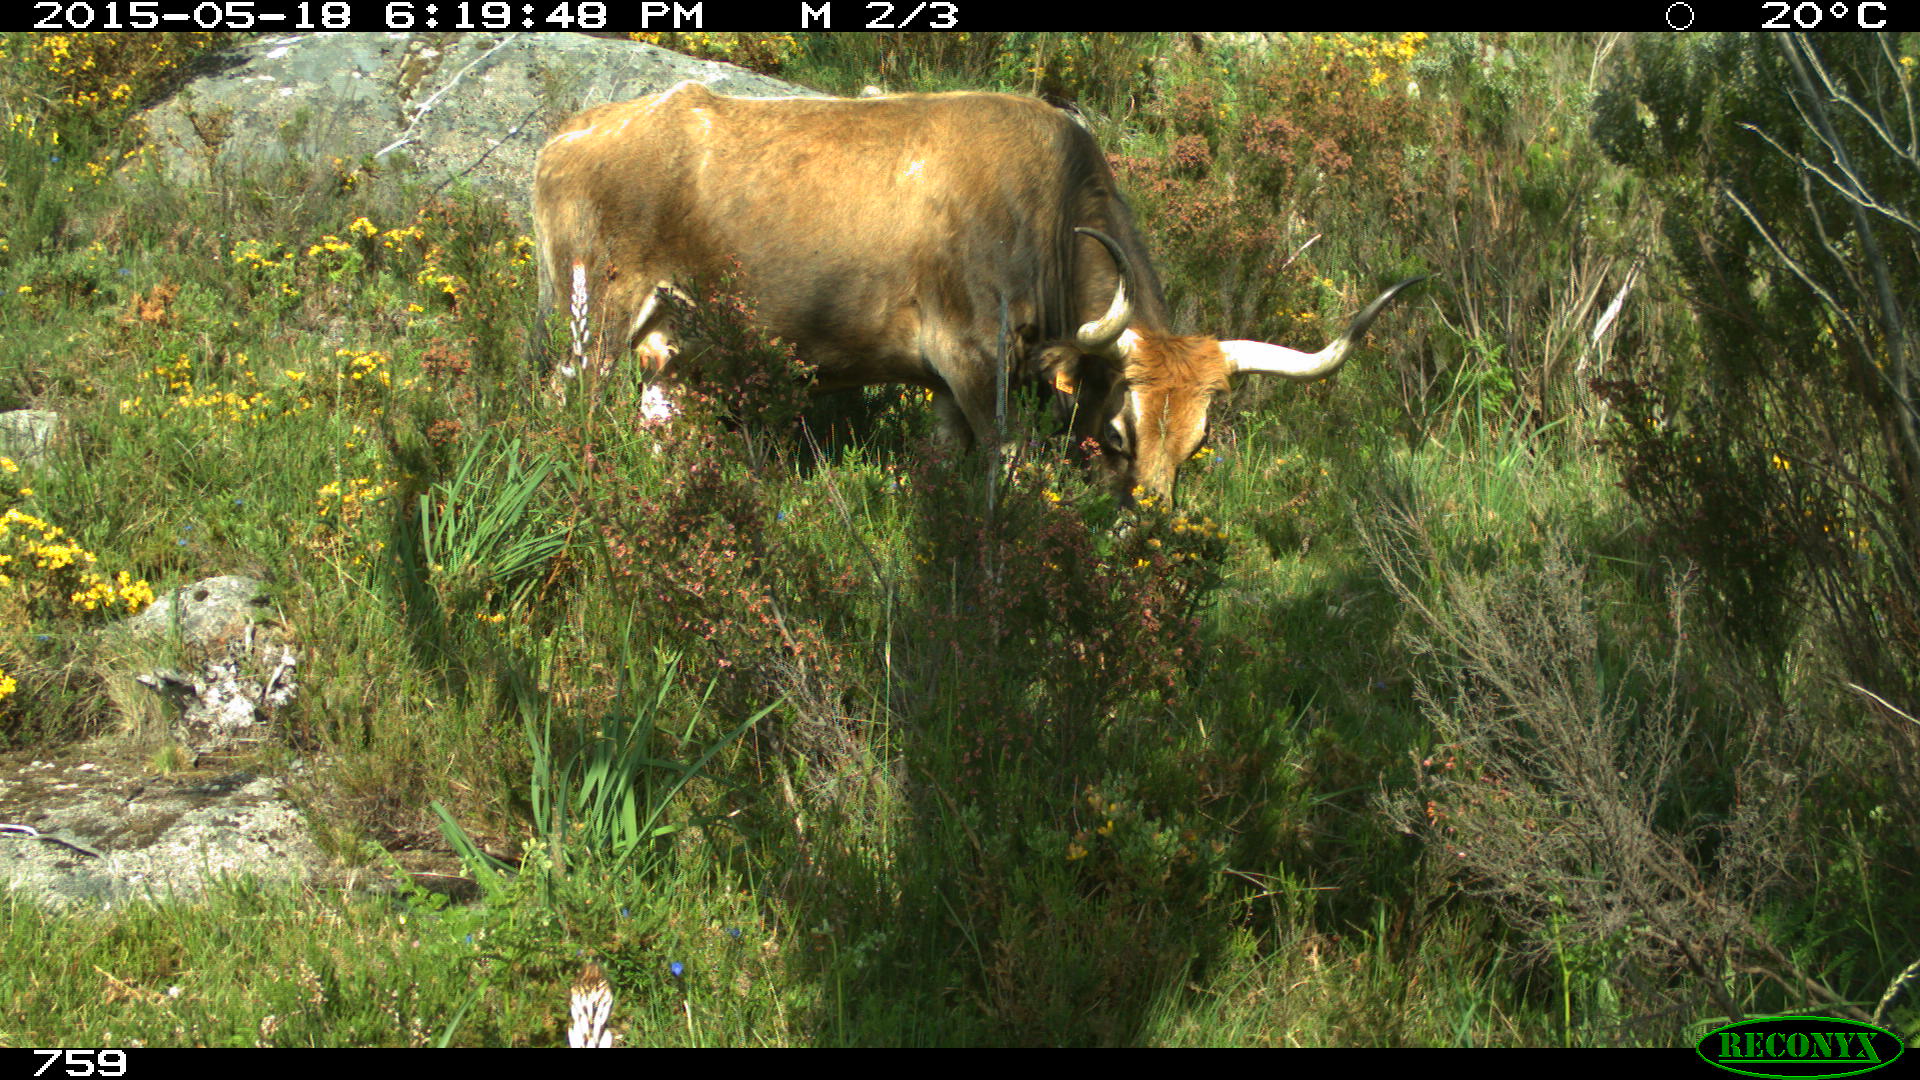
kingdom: Animalia
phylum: Chordata
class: Mammalia
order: Artiodactyla
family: Bovidae
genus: Bos
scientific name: Bos taurus
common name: Domesticated cattle
